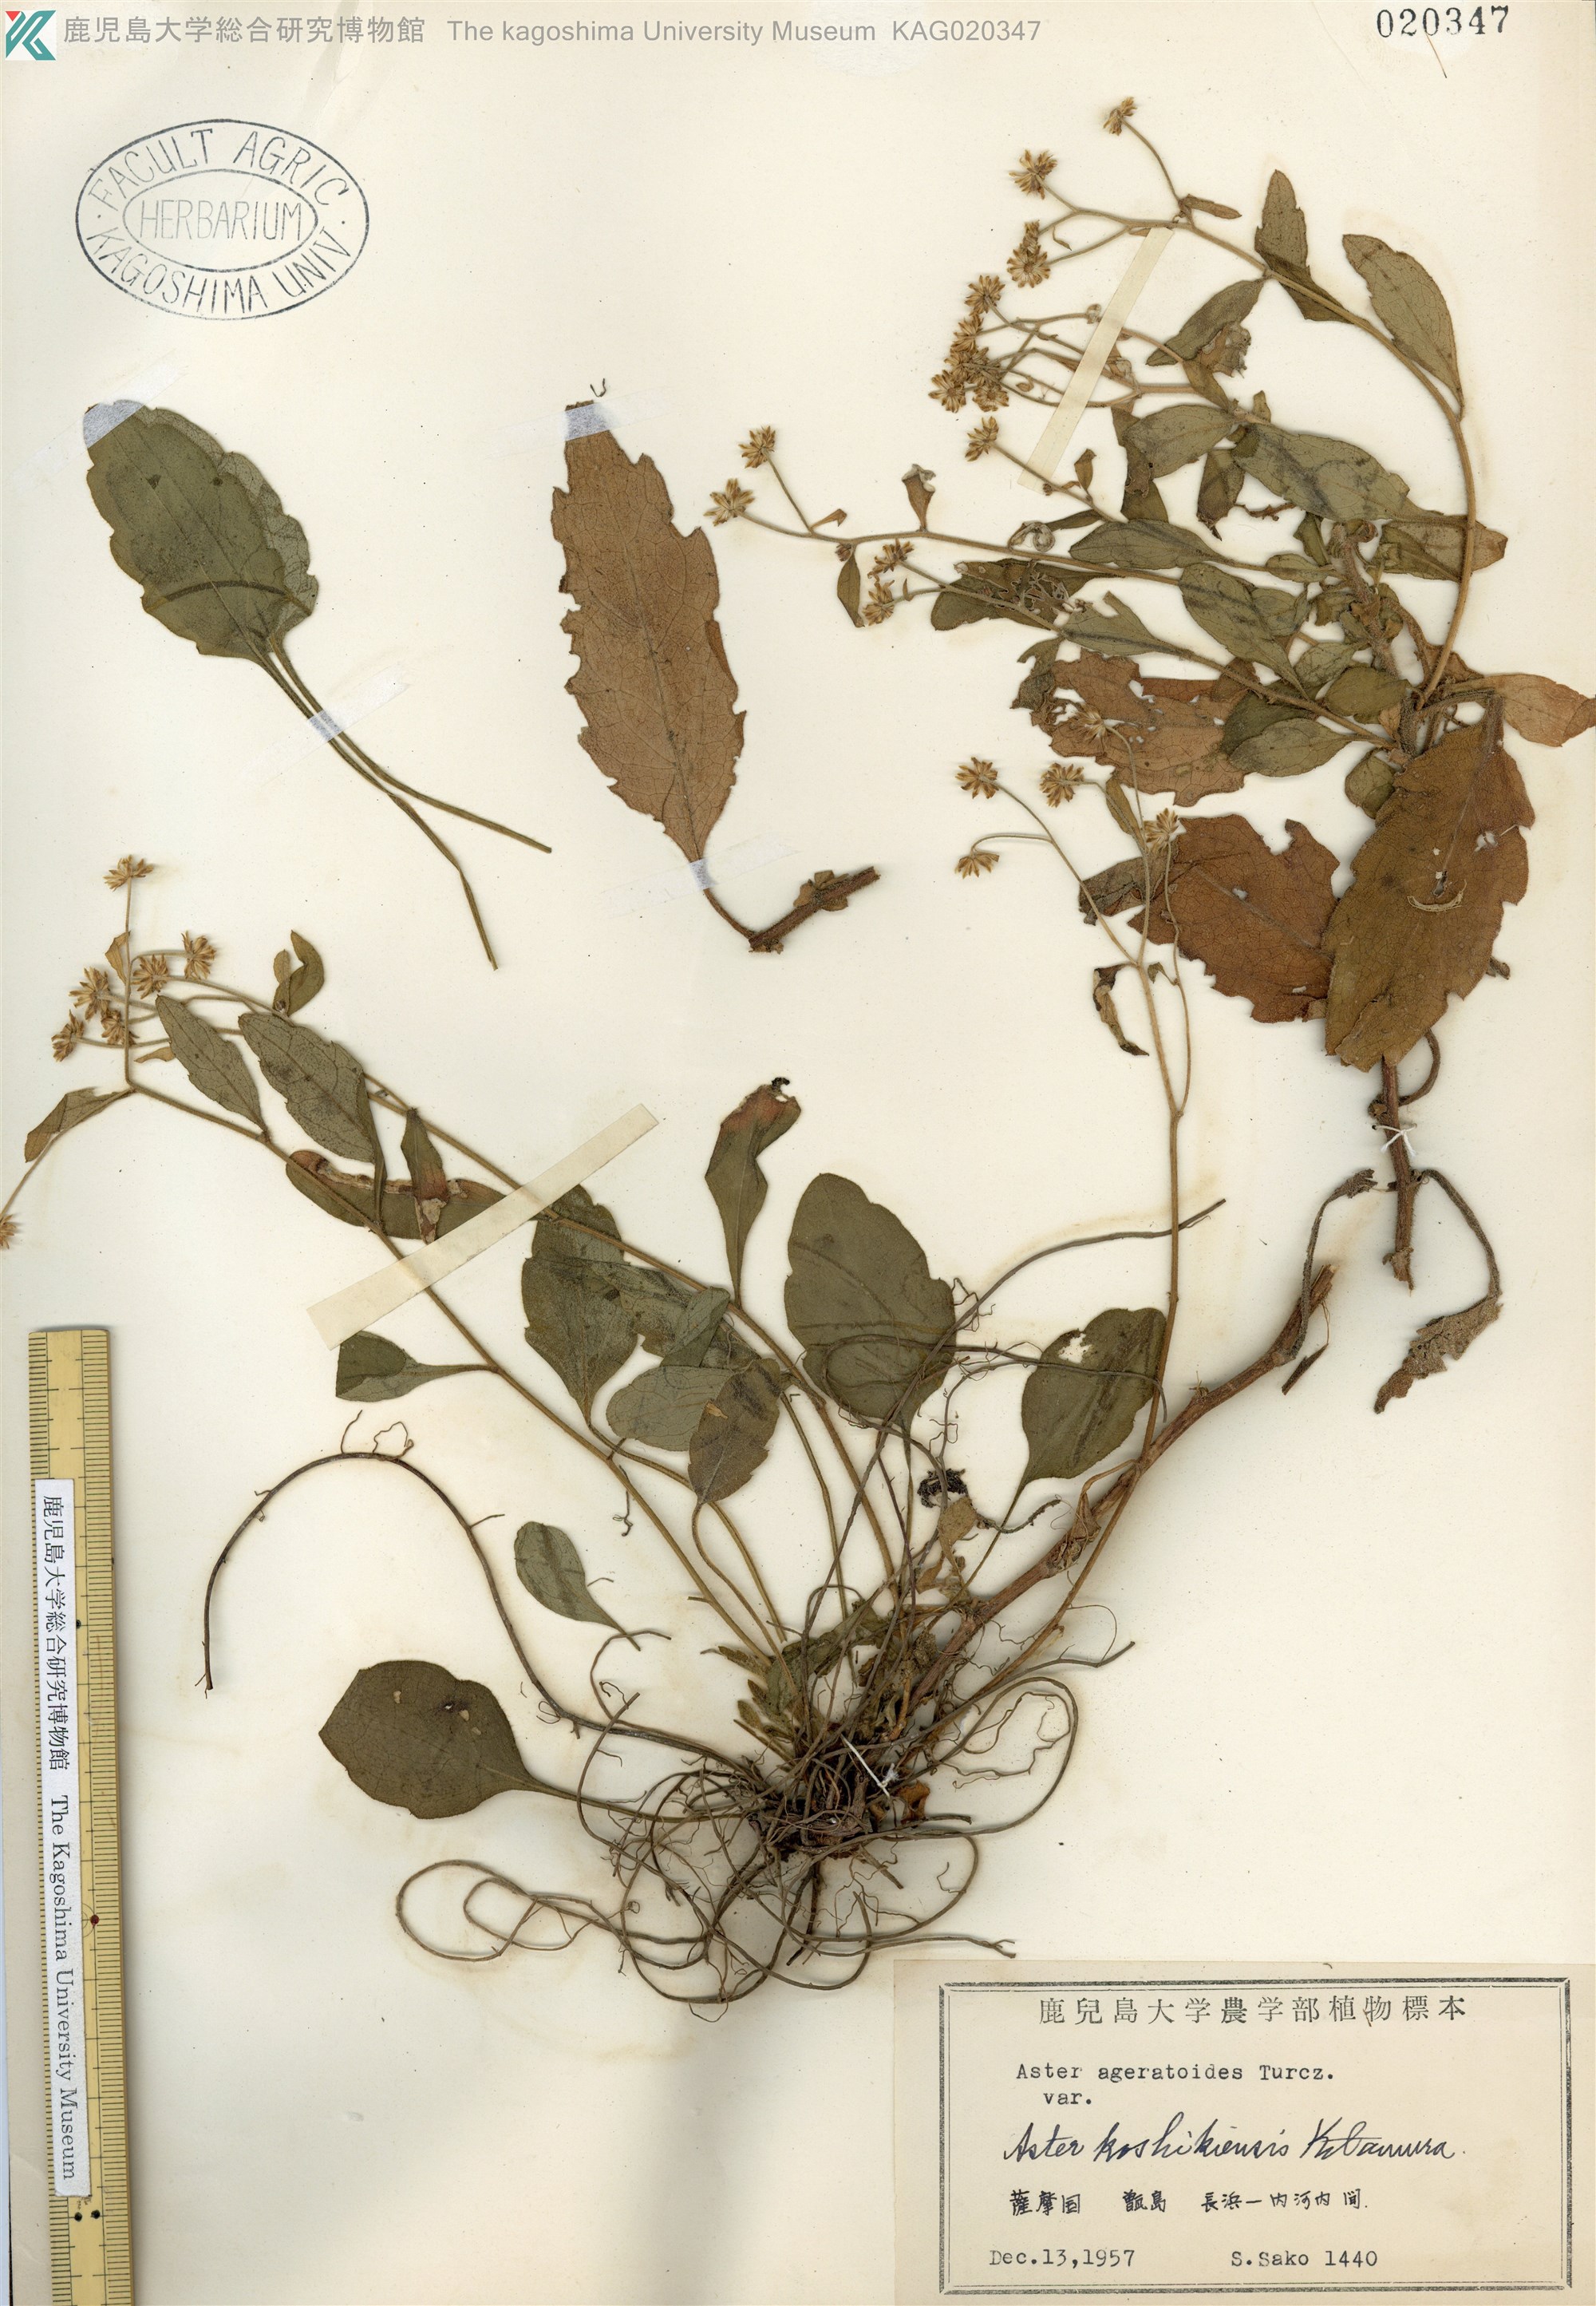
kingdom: Plantae
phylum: Tracheophyta
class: Magnoliopsida
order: Asterales
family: Asteraceae
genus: Aster
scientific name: Aster koshikiensis
